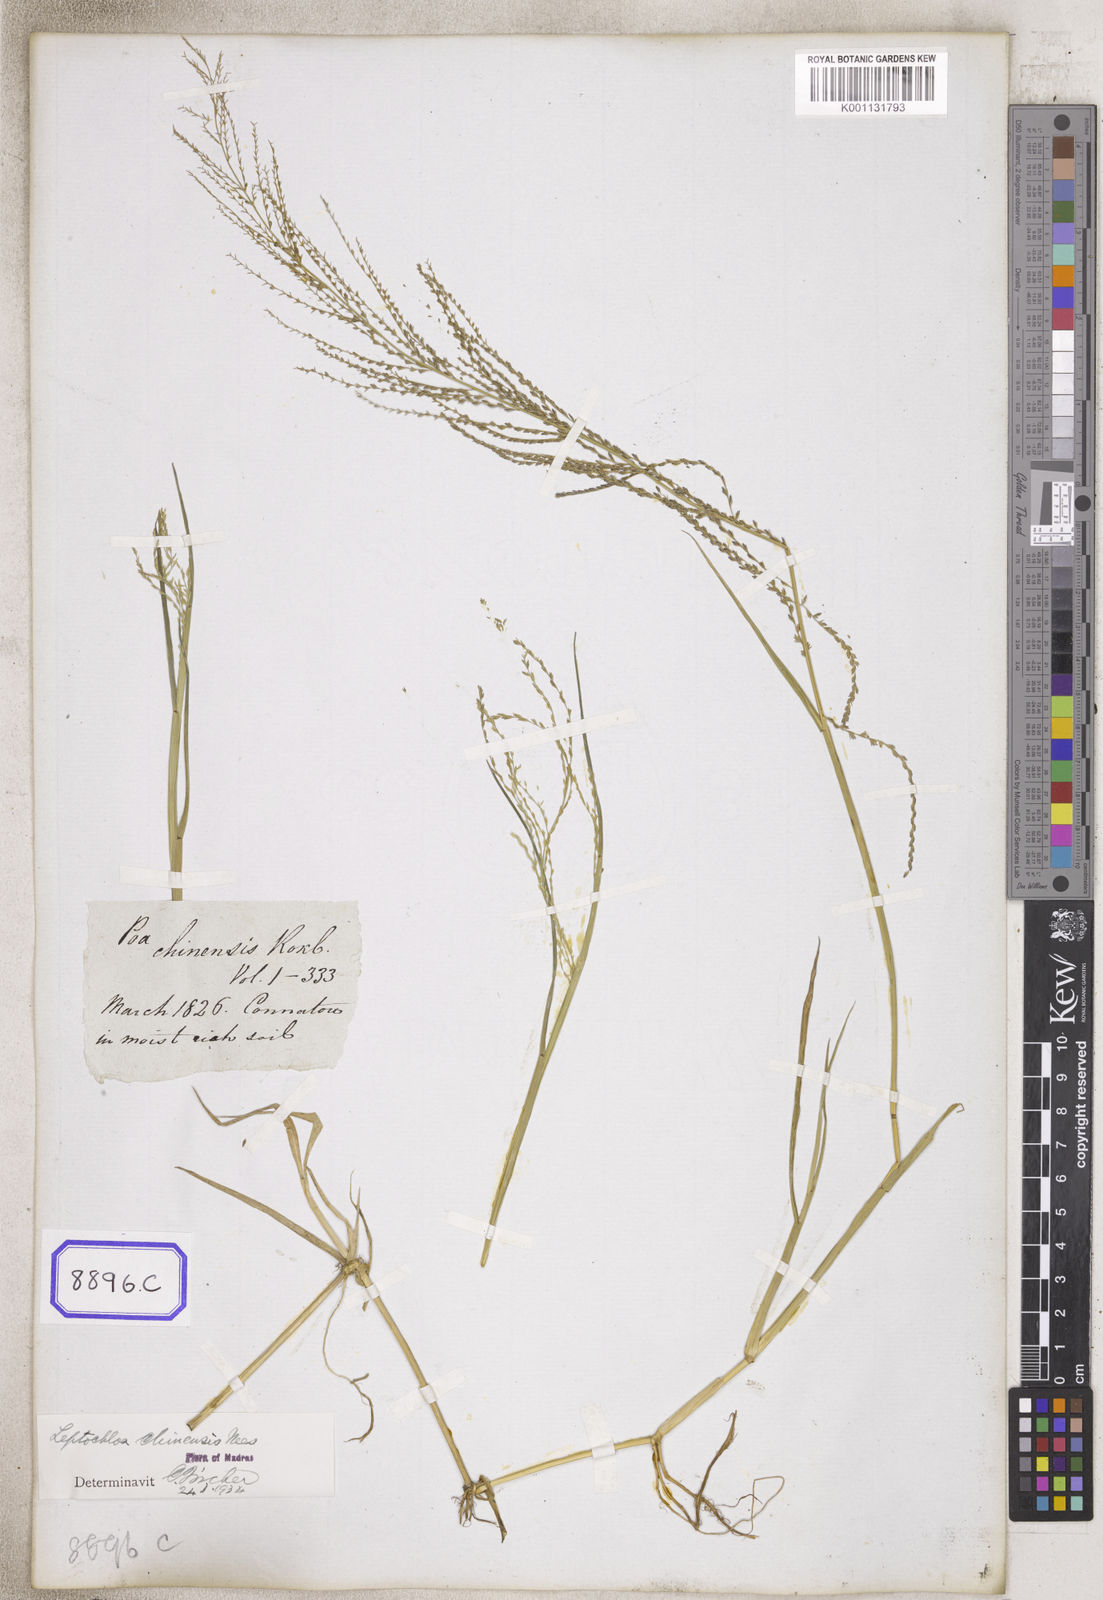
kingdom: Plantae
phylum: Tracheophyta
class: Liliopsida
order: Poales
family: Poaceae
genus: Leptochloa
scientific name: Leptochloa chinensis
